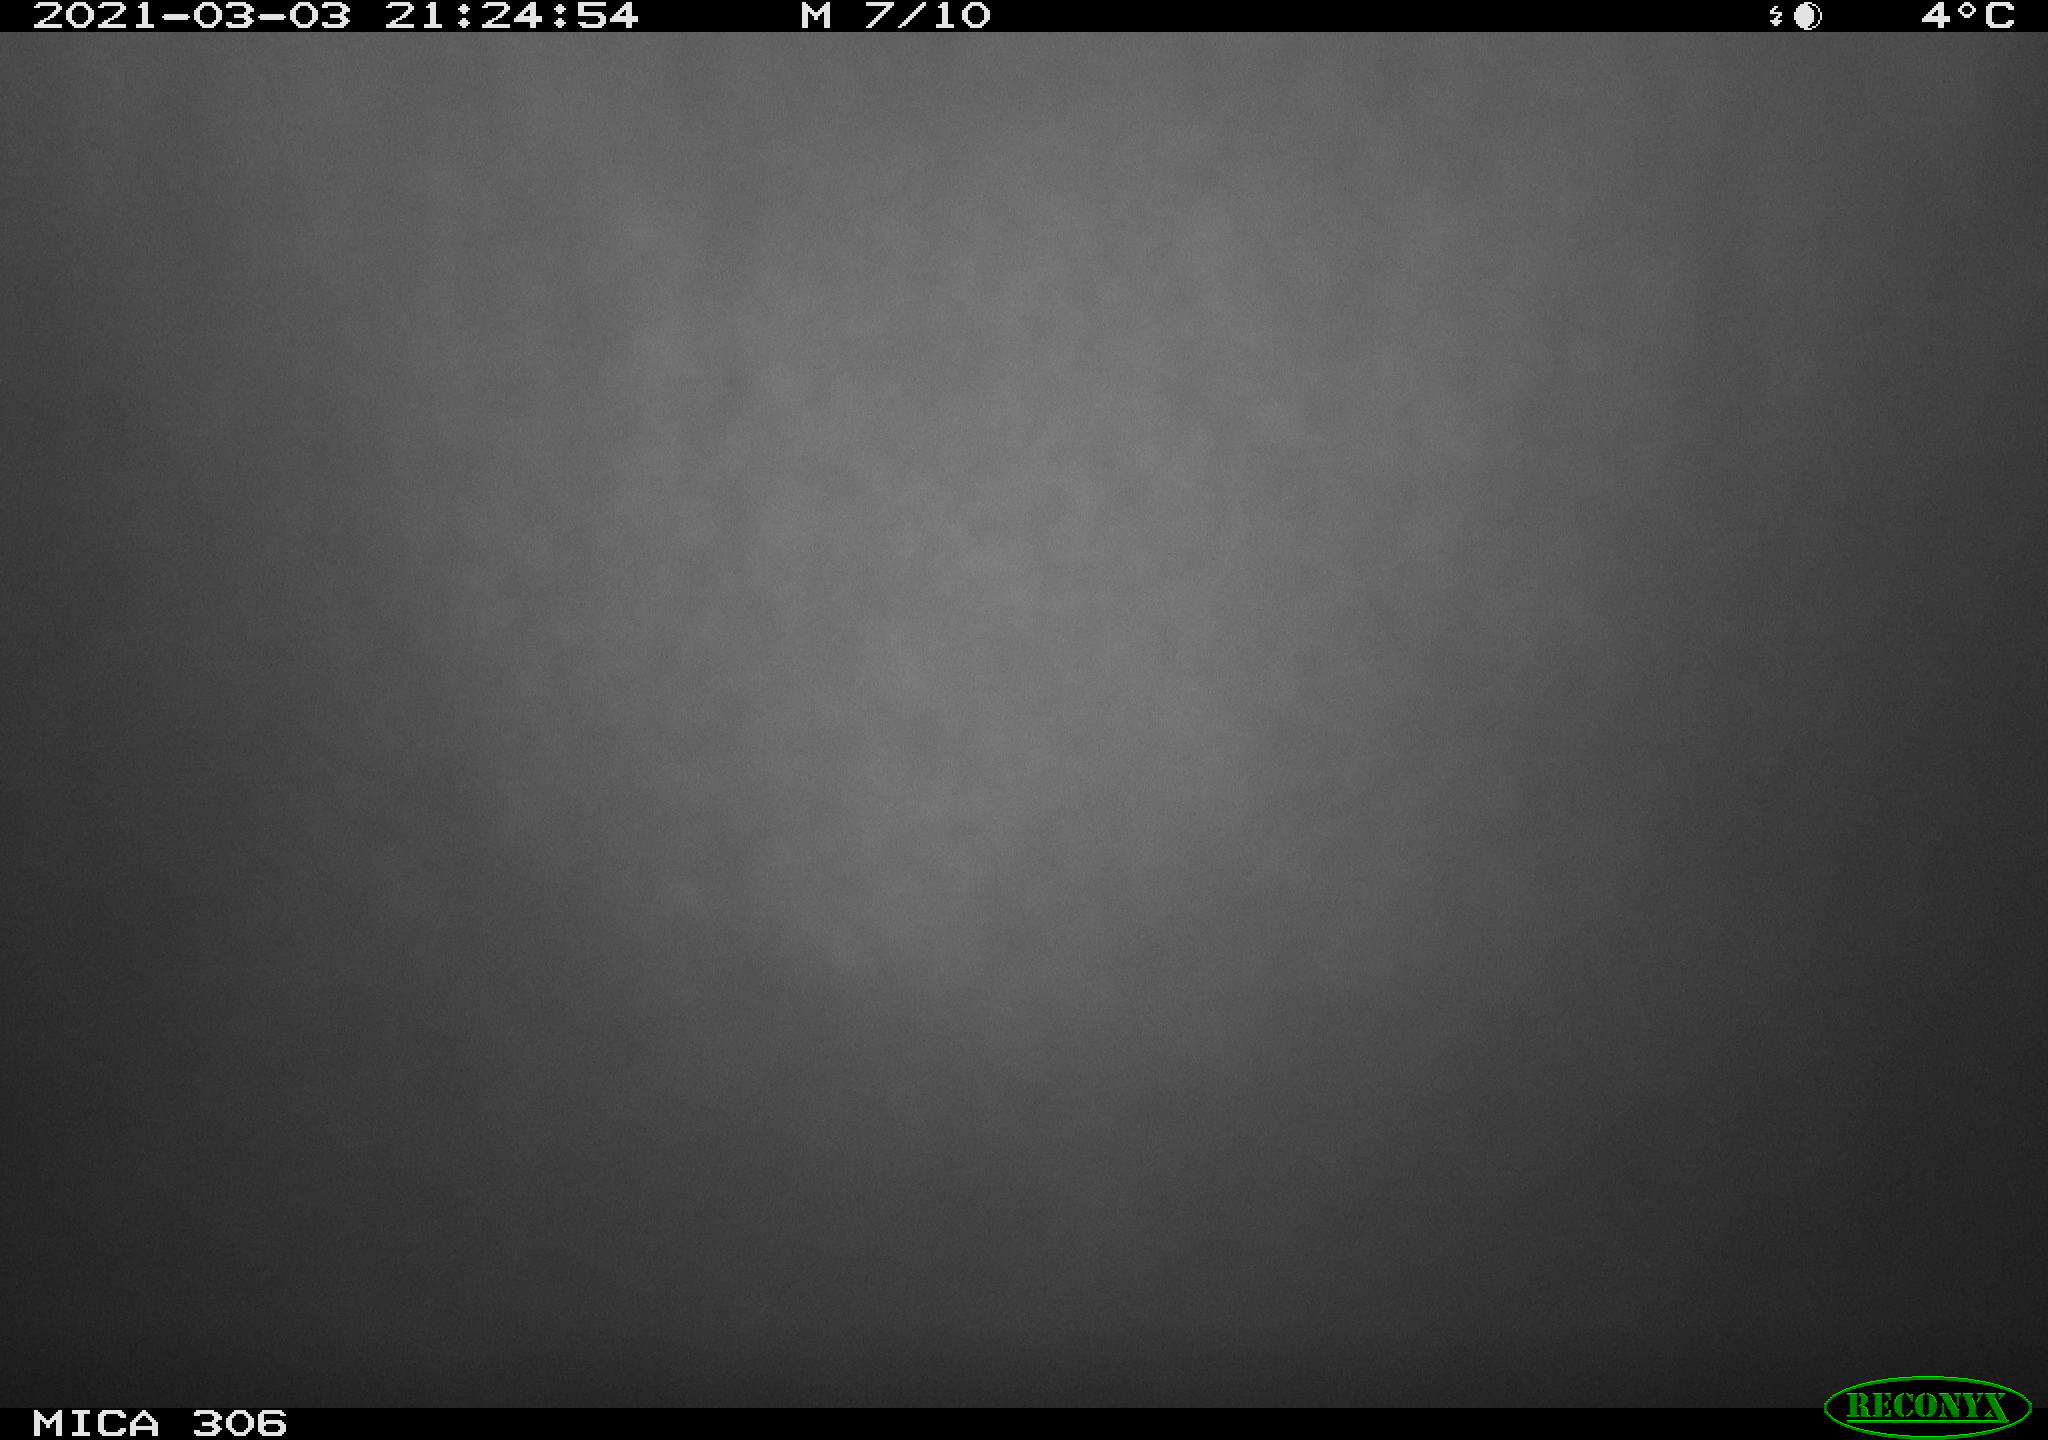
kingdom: Animalia
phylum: Chordata
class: Mammalia
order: Rodentia
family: Muridae
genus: Rattus
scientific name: Rattus norvegicus
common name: Brown rat
